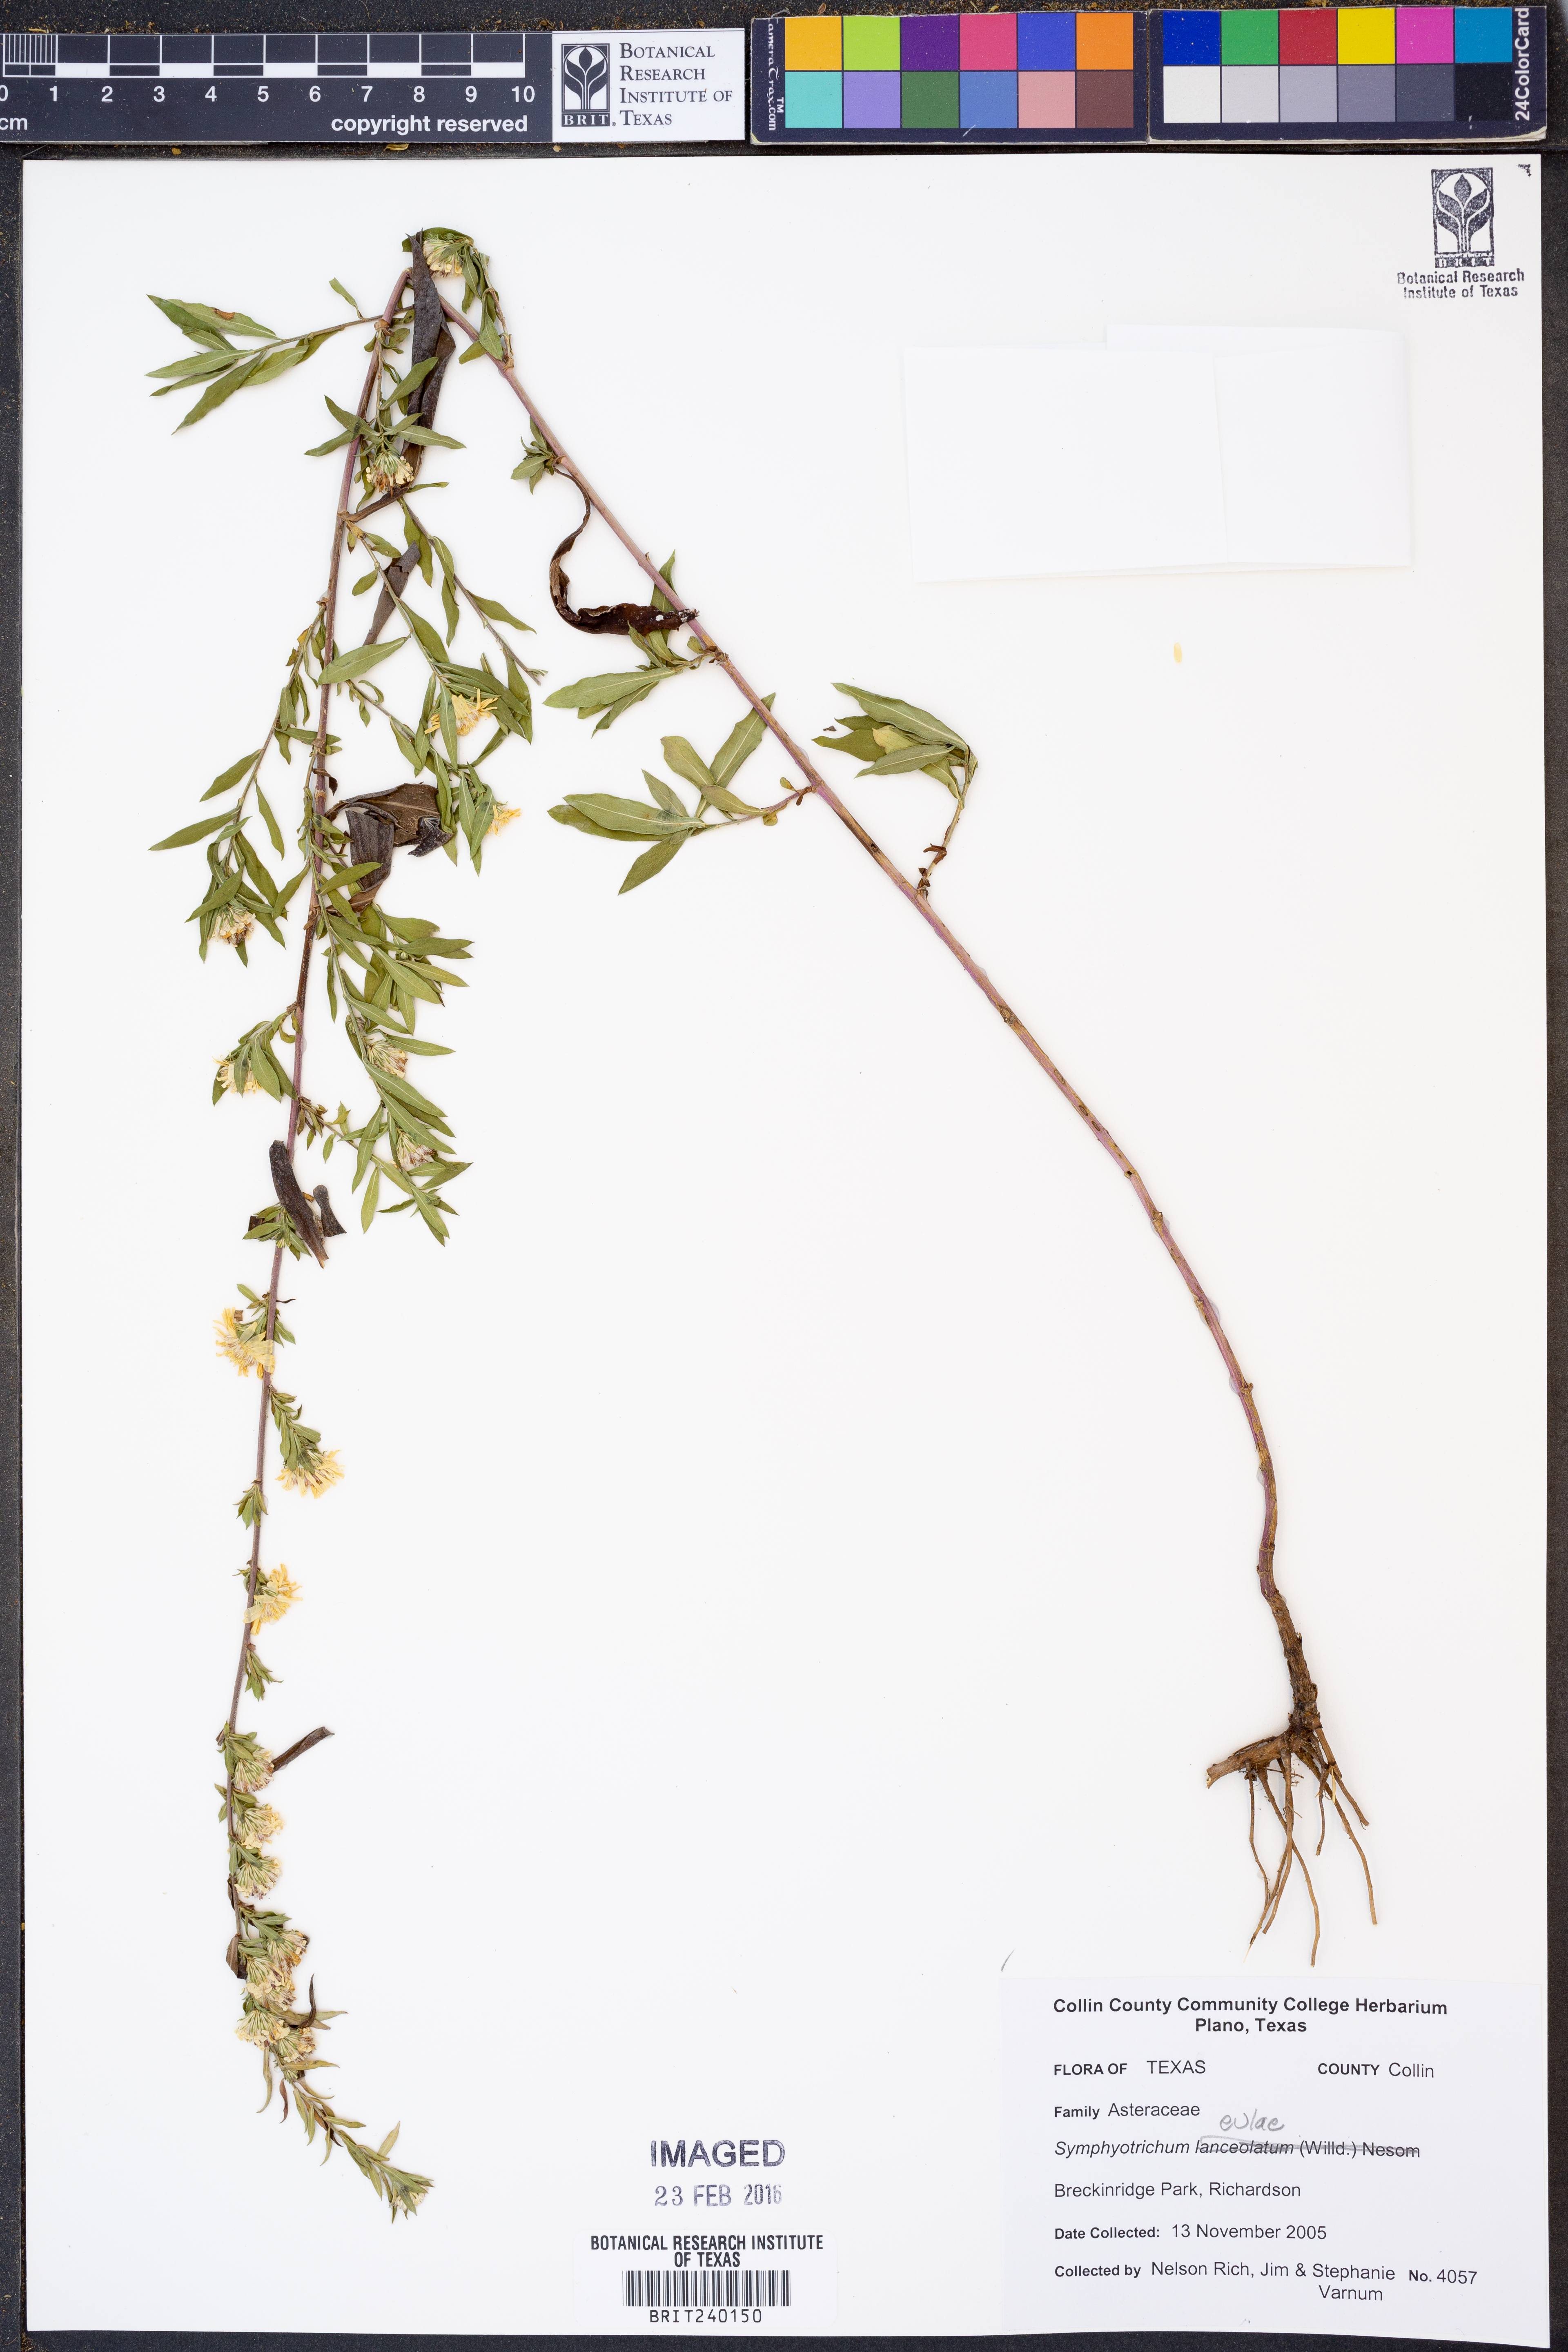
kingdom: Plantae
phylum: Tracheophyta
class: Magnoliopsida
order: Asterales
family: Asteraceae
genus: Symphyotrichum
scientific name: Symphyotrichum eulae
